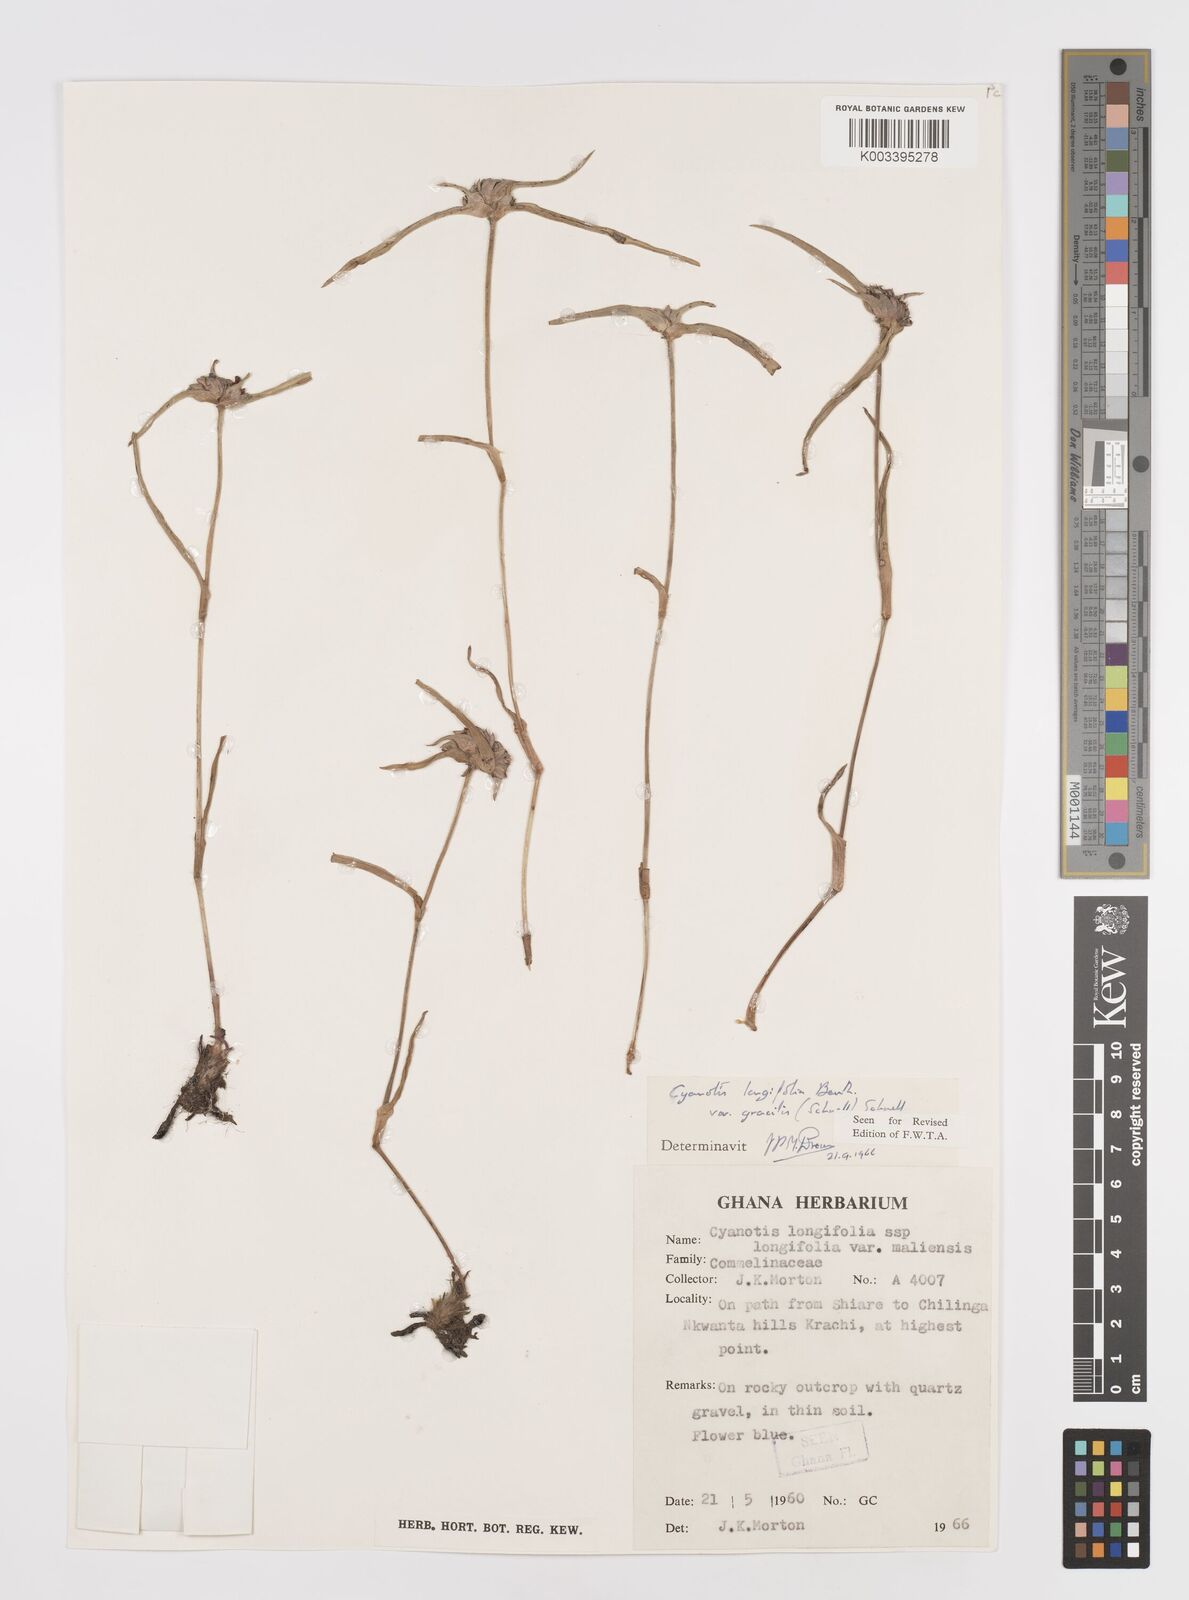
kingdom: Plantae
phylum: Tracheophyta
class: Liliopsida
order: Commelinales
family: Commelinaceae
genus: Cyanotis
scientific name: Cyanotis longifolia
